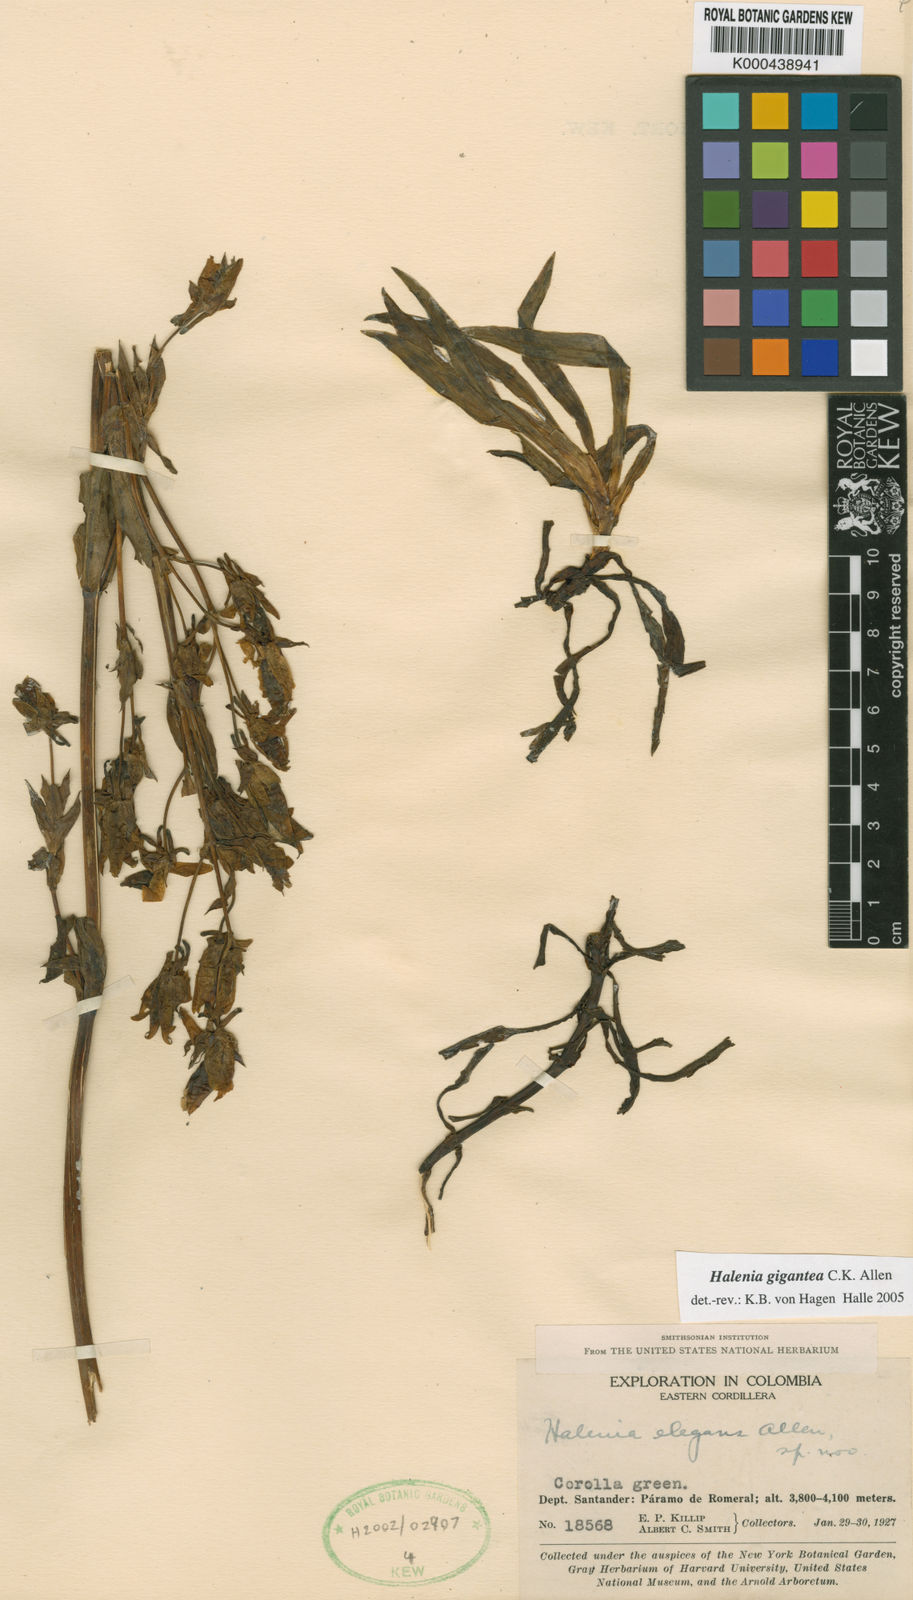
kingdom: Plantae
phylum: Tracheophyta
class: Magnoliopsida
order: Gentianales
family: Gentianaceae
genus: Halenia
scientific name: Halenia gigantea
